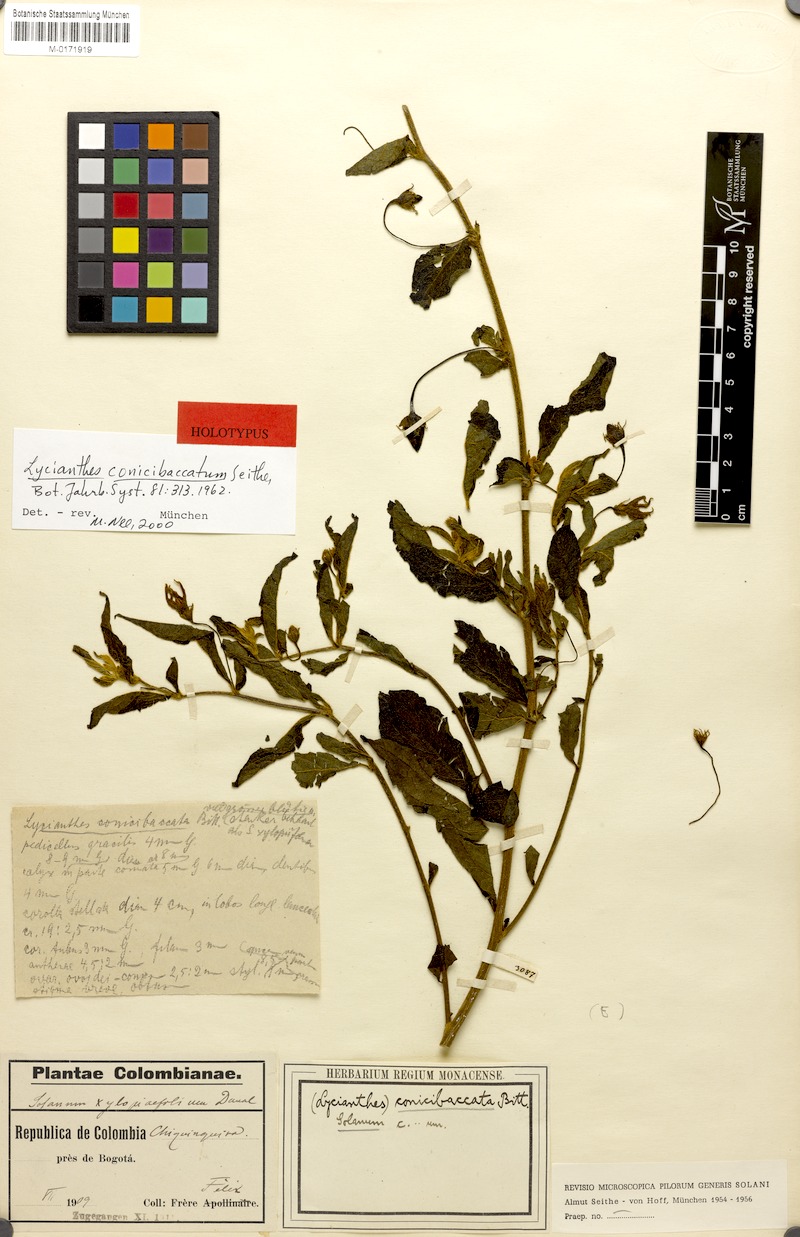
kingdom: Plantae
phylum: Tracheophyta
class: Magnoliopsida
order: Solanales
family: Solanaceae
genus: Lycianthes
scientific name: Lycianthes acutifolia
